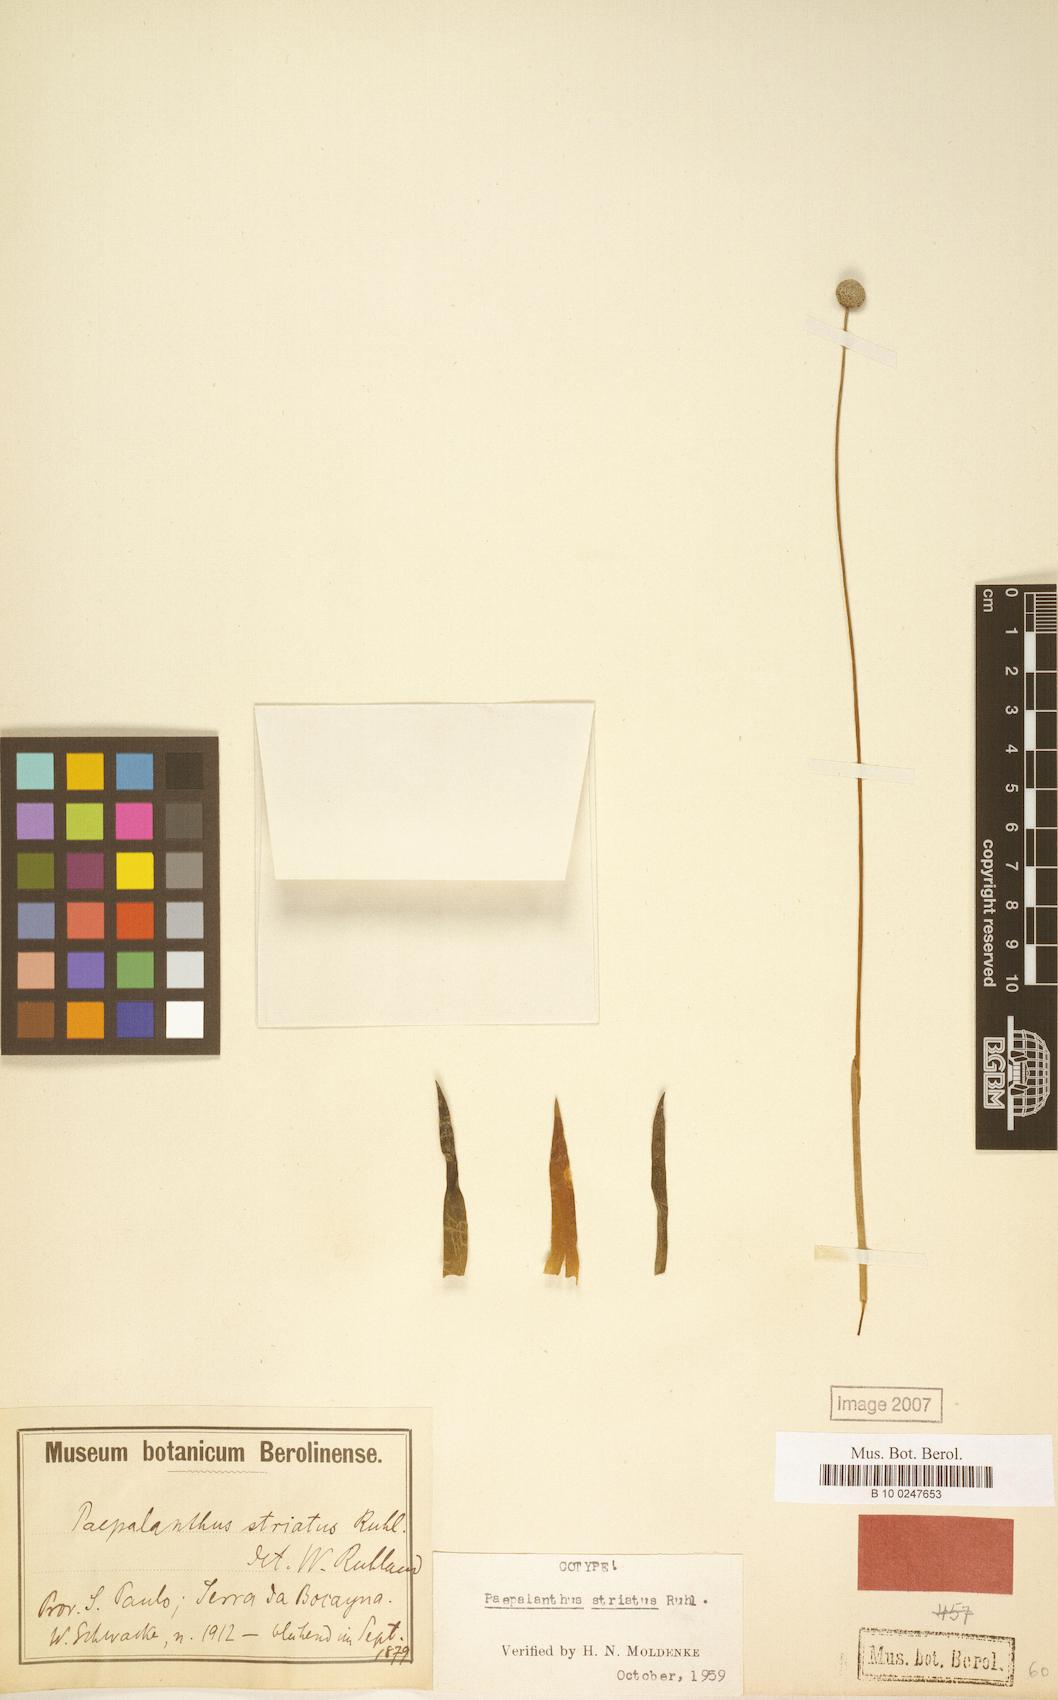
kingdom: Plantae
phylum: Tracheophyta
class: Liliopsida
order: Poales
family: Eriocaulaceae
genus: Paepalanthus
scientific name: Paepalanthus striatus
